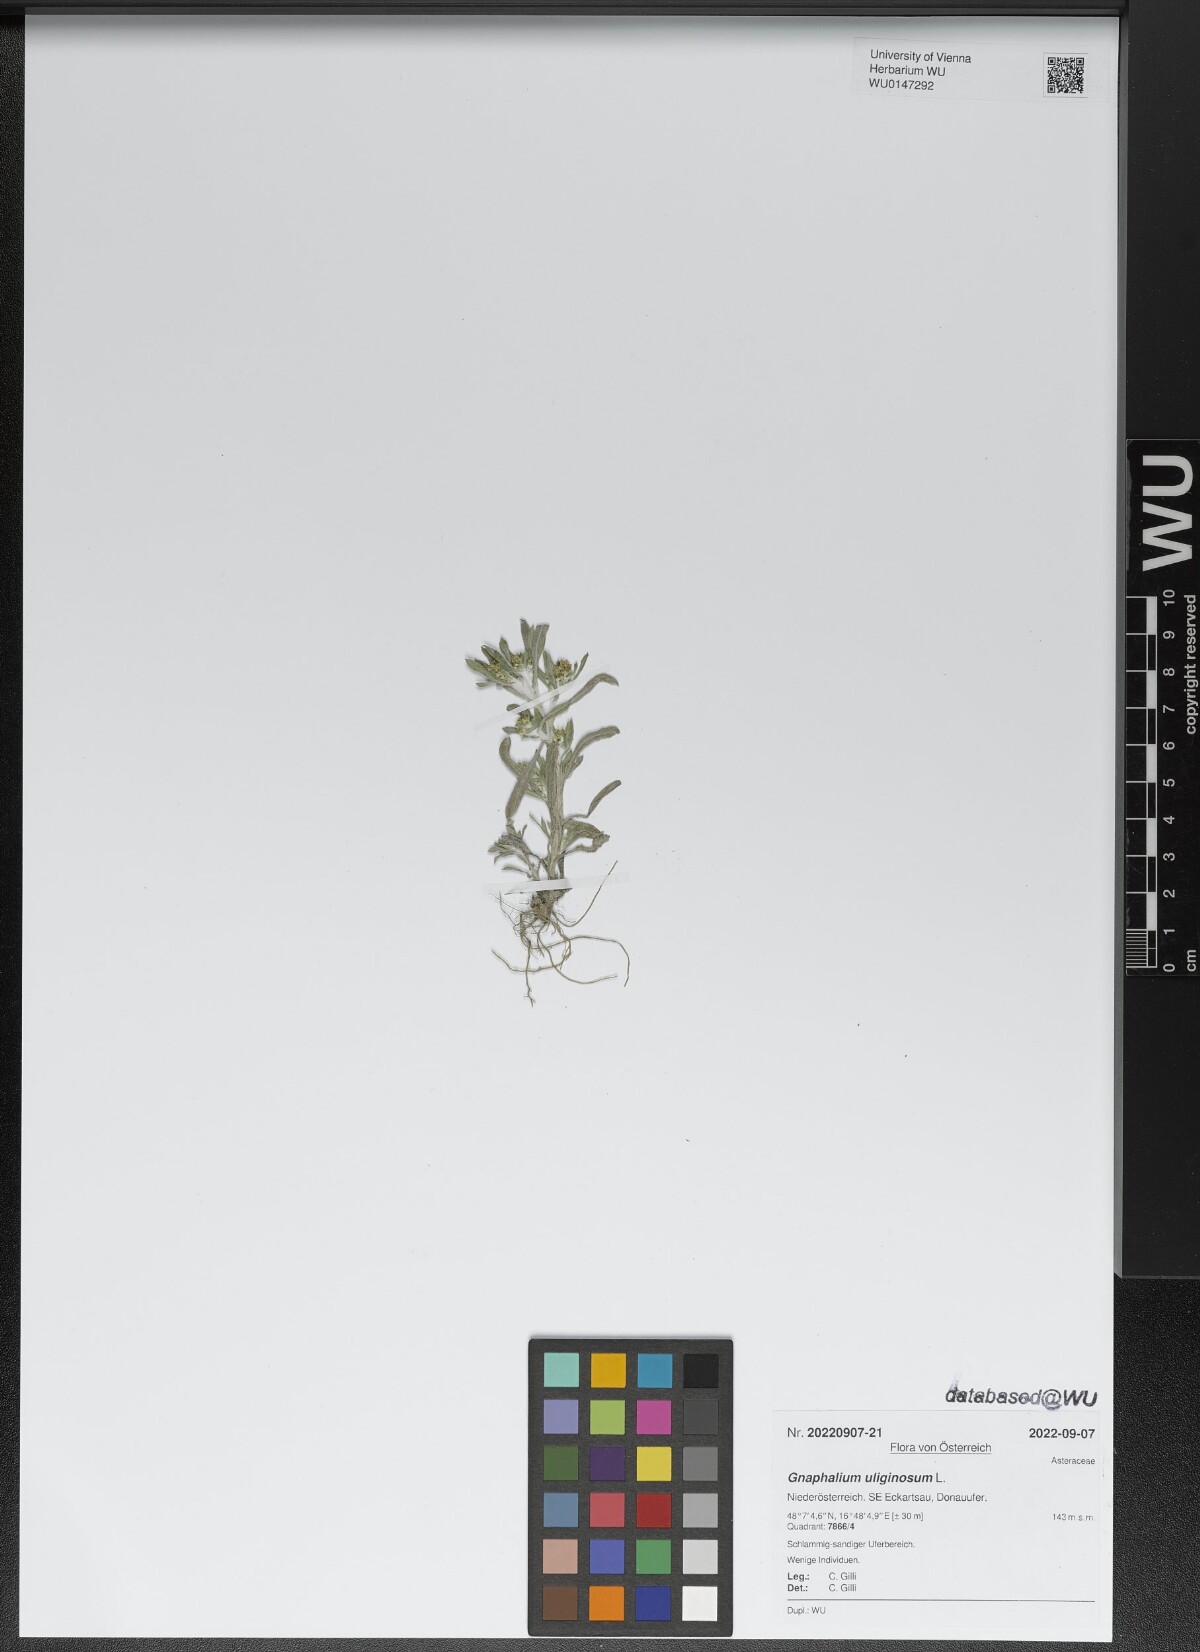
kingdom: Plantae
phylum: Tracheophyta
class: Magnoliopsida
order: Asterales
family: Asteraceae
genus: Gnaphalium
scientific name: Gnaphalium uliginosum
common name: Marsh cudweed
